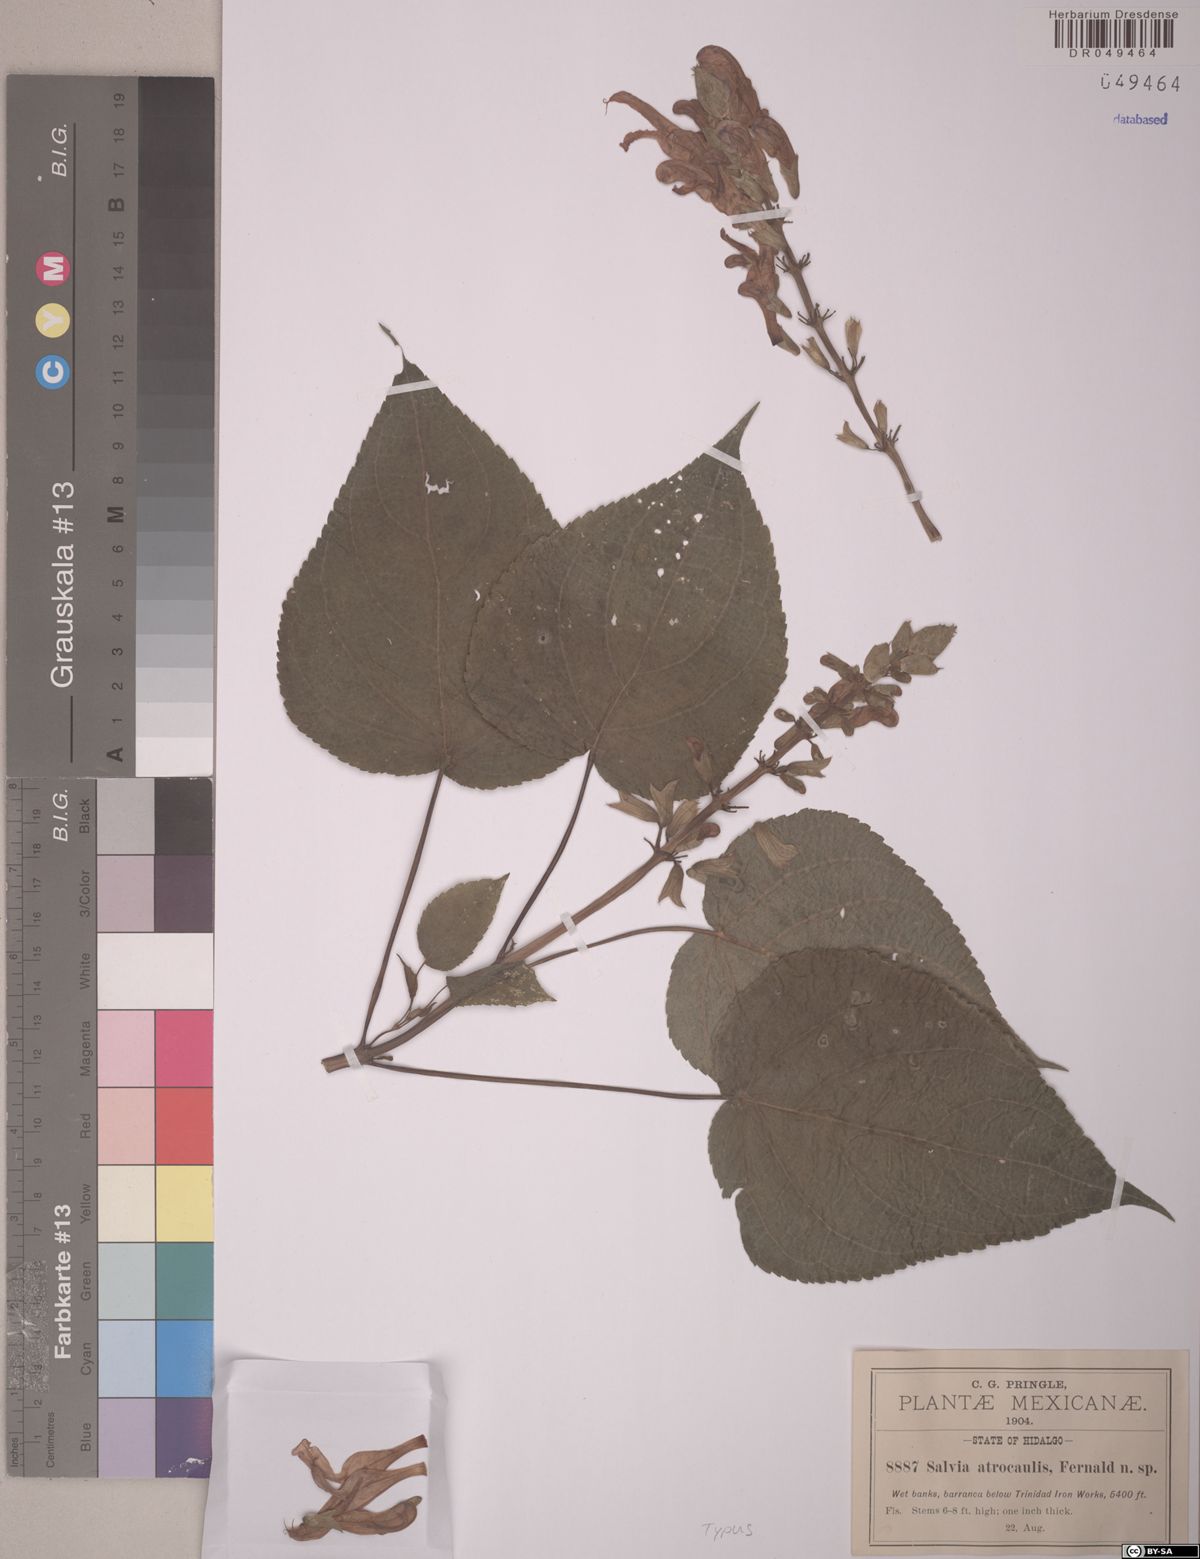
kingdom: Plantae
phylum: Tracheophyta
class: Magnoliopsida
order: Lamiales
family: Lamiaceae
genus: Salvia
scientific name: Salvia recurva
